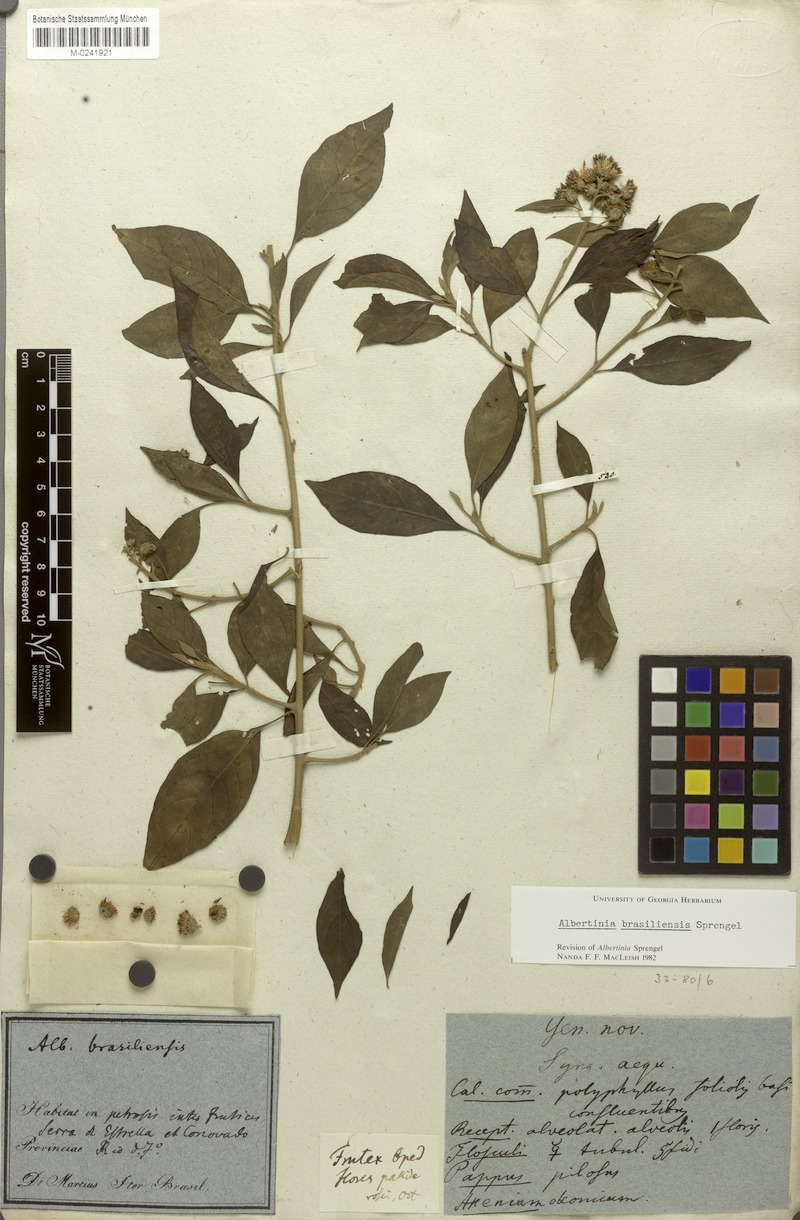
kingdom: Plantae
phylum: Tracheophyta
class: Magnoliopsida
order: Asterales
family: Asteraceae
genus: Albertinia
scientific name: Albertinia brasiliensis
